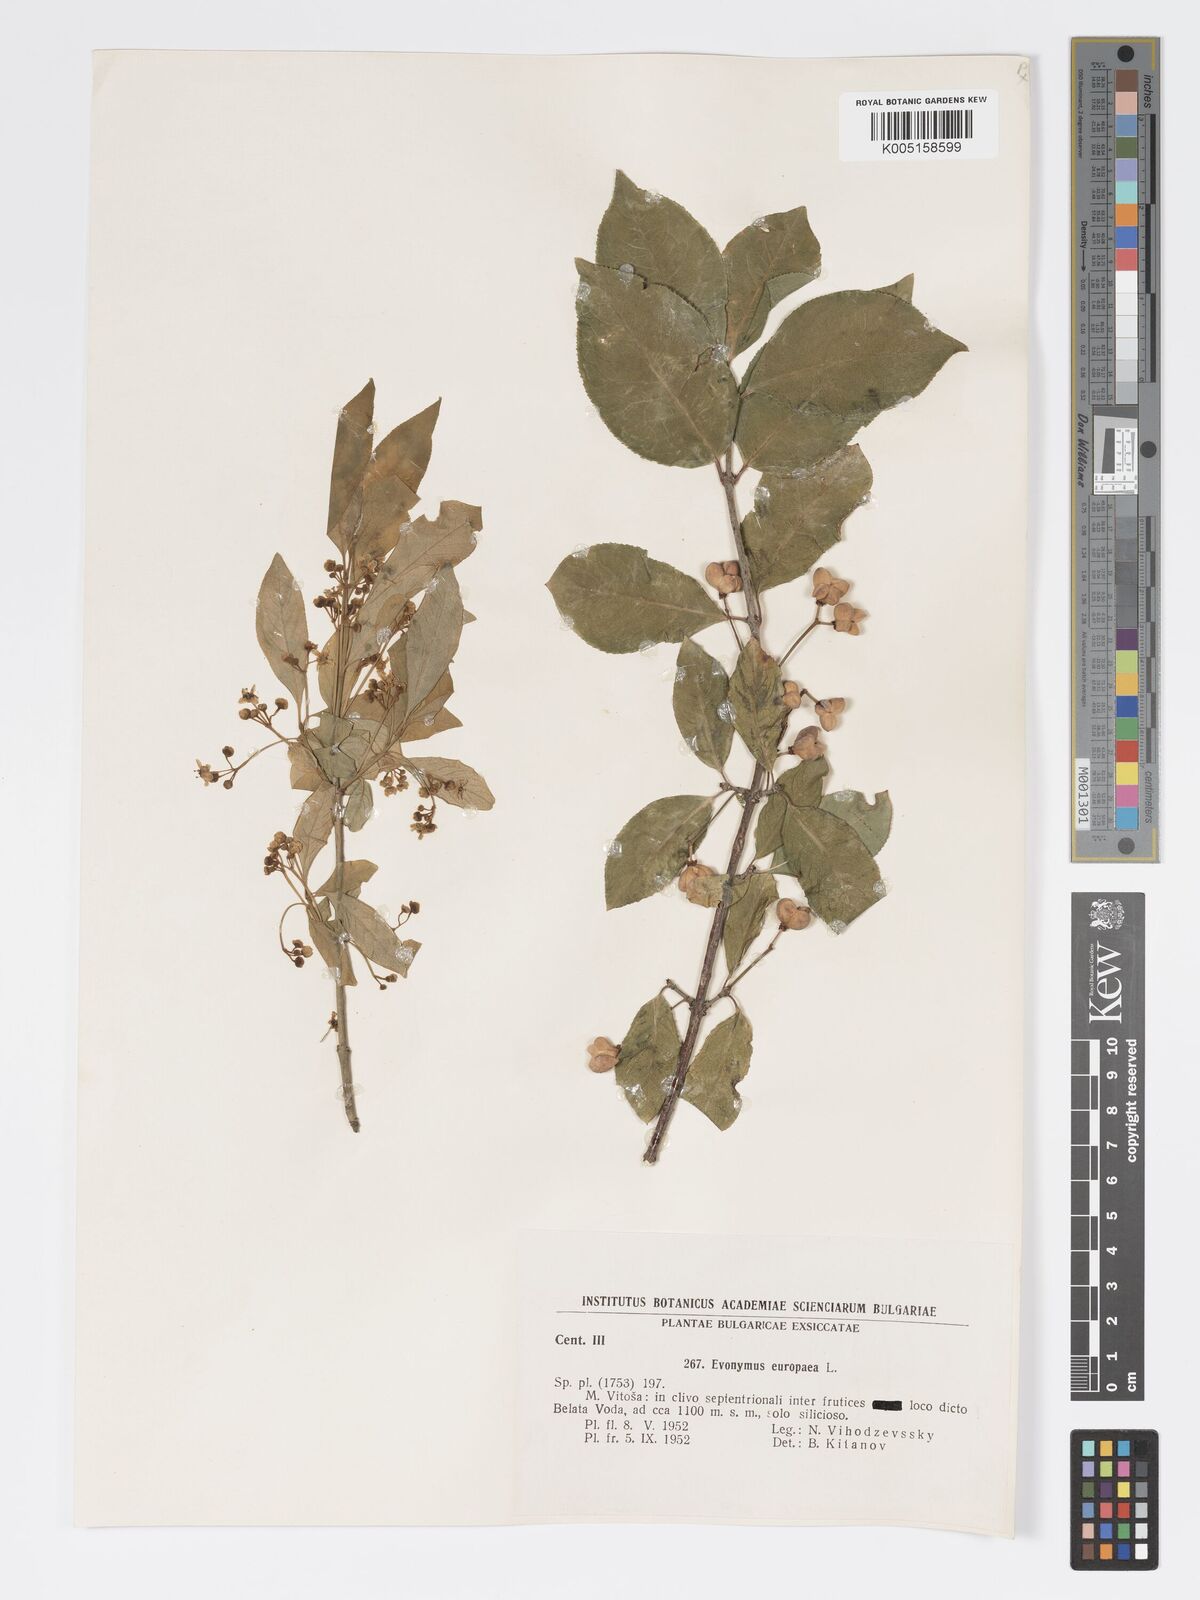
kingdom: Plantae
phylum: Tracheophyta
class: Magnoliopsida
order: Celastrales
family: Celastraceae
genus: Euonymus
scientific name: Euonymus europaeus
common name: Spindle
